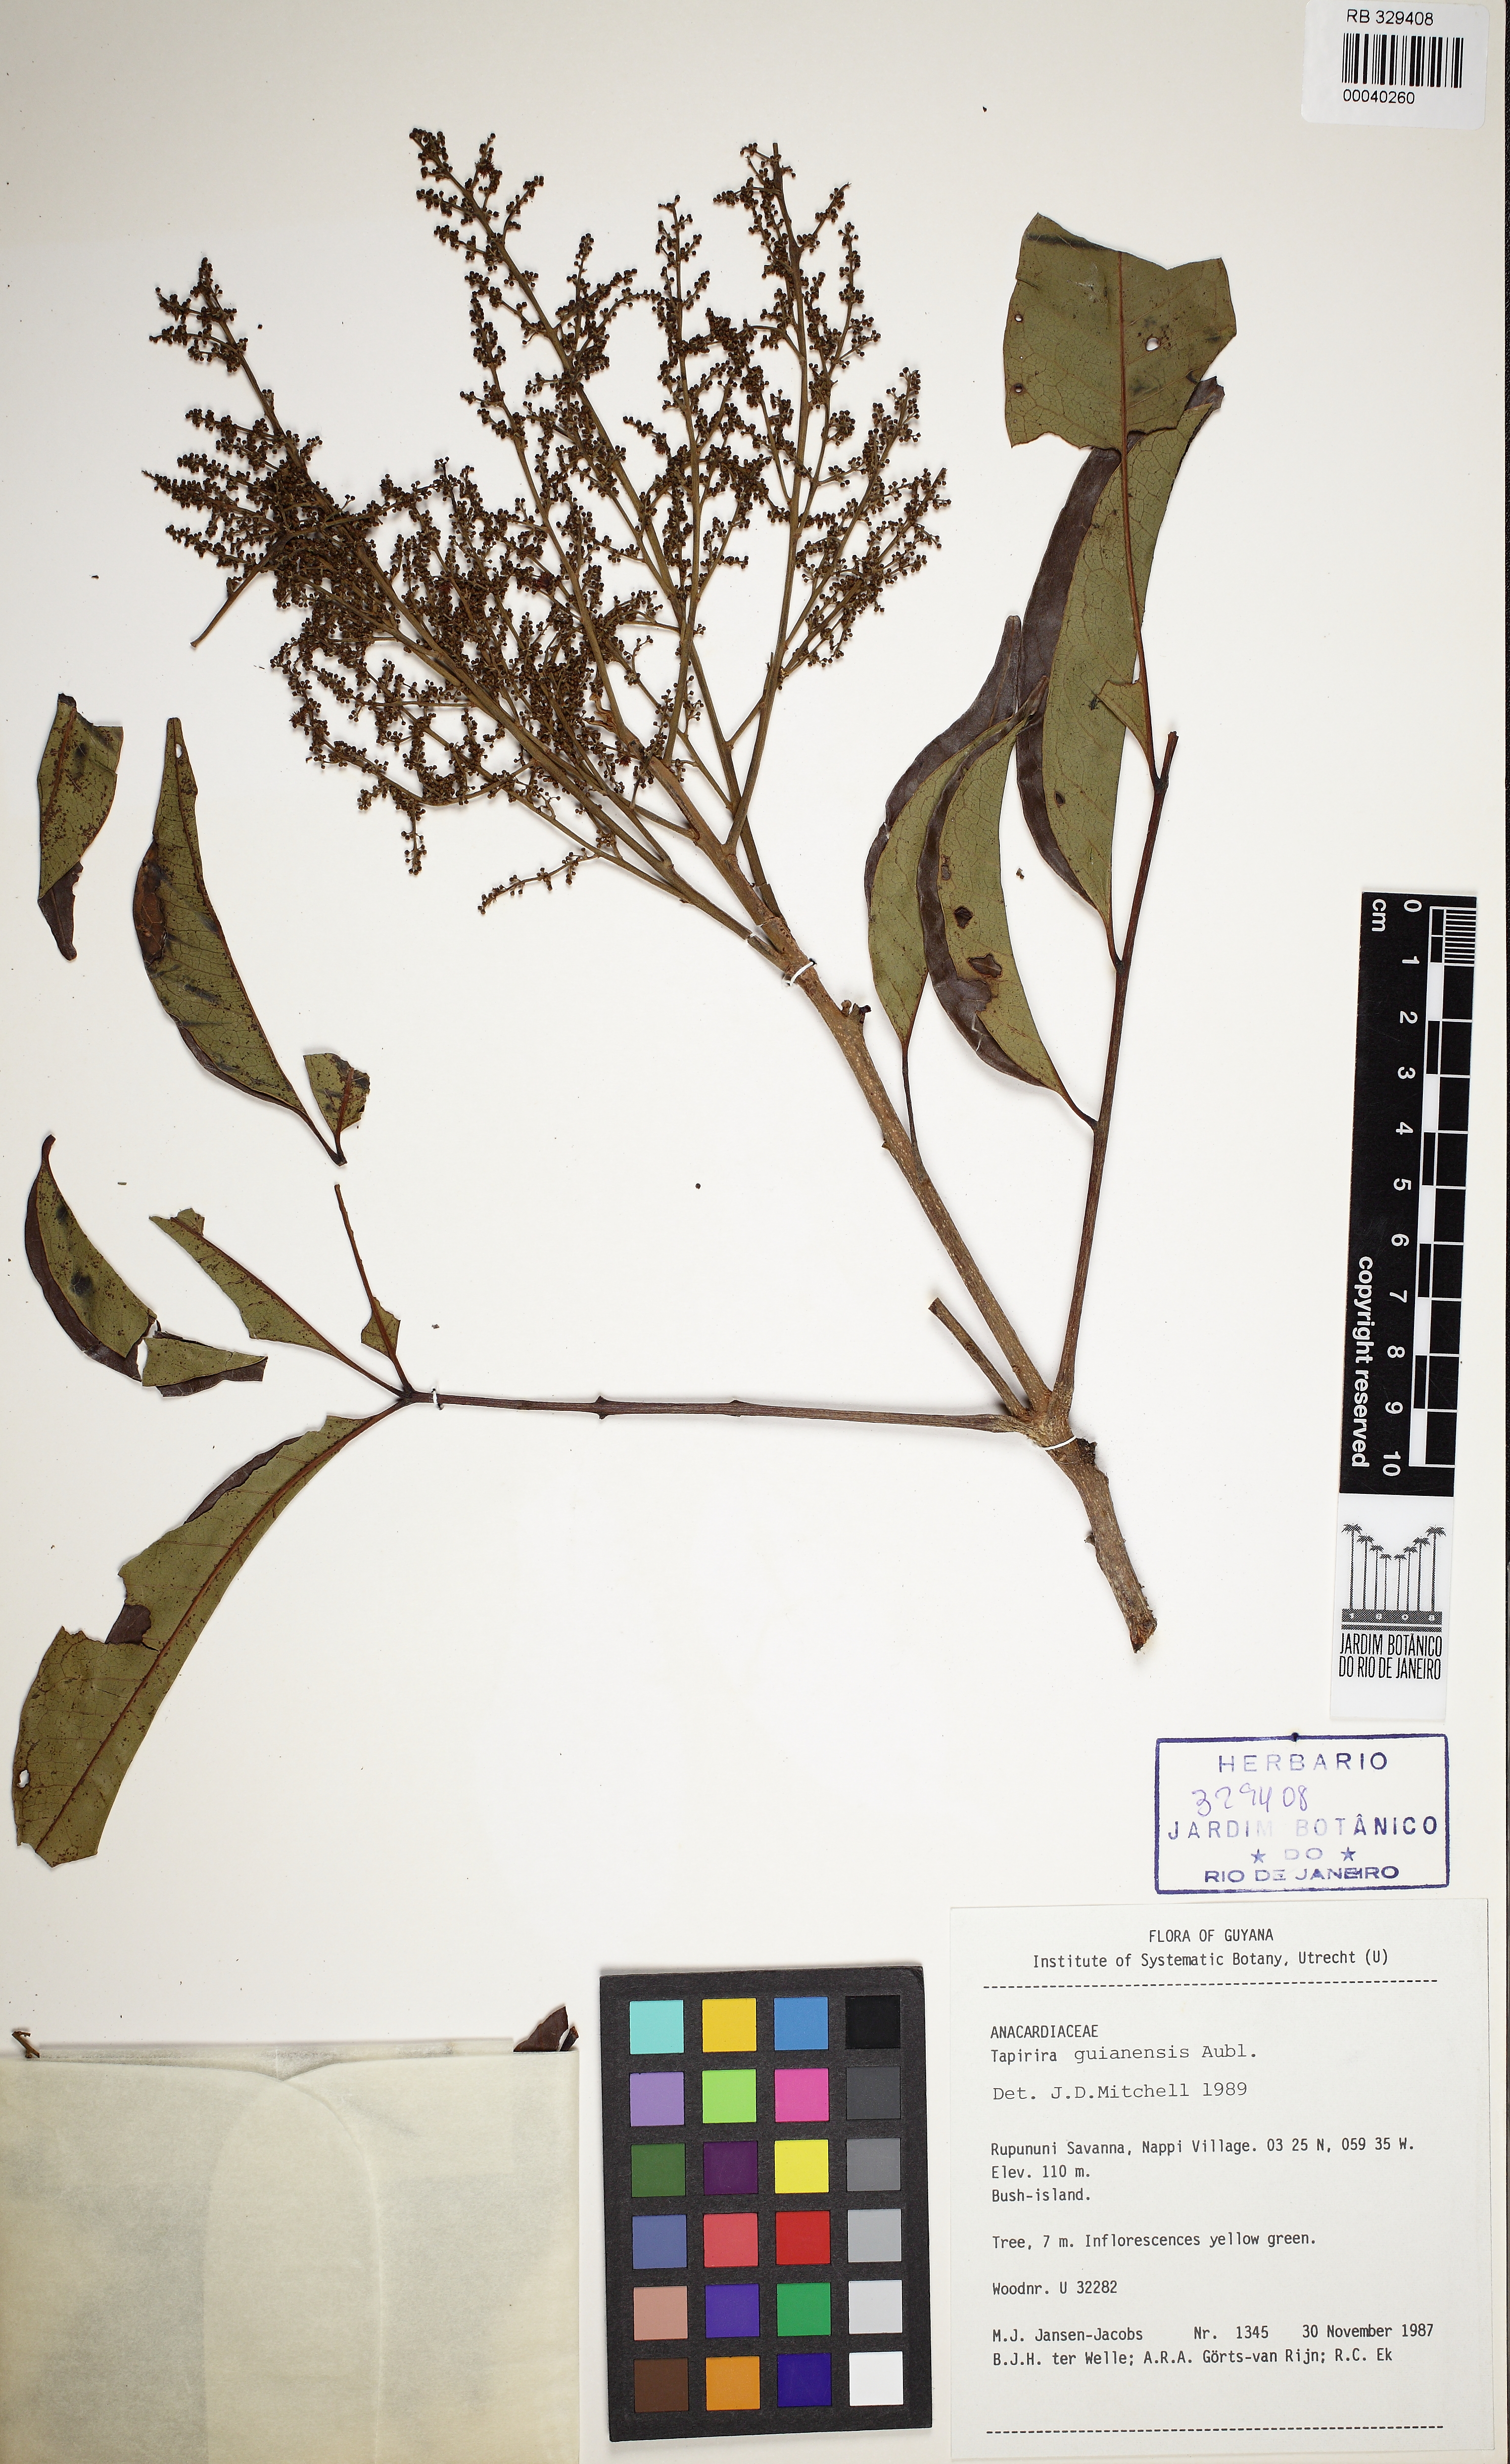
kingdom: Plantae
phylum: Tracheophyta
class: Magnoliopsida
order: Sapindales
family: Anacardiaceae
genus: Tapirira
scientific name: Tapirira guianensis
